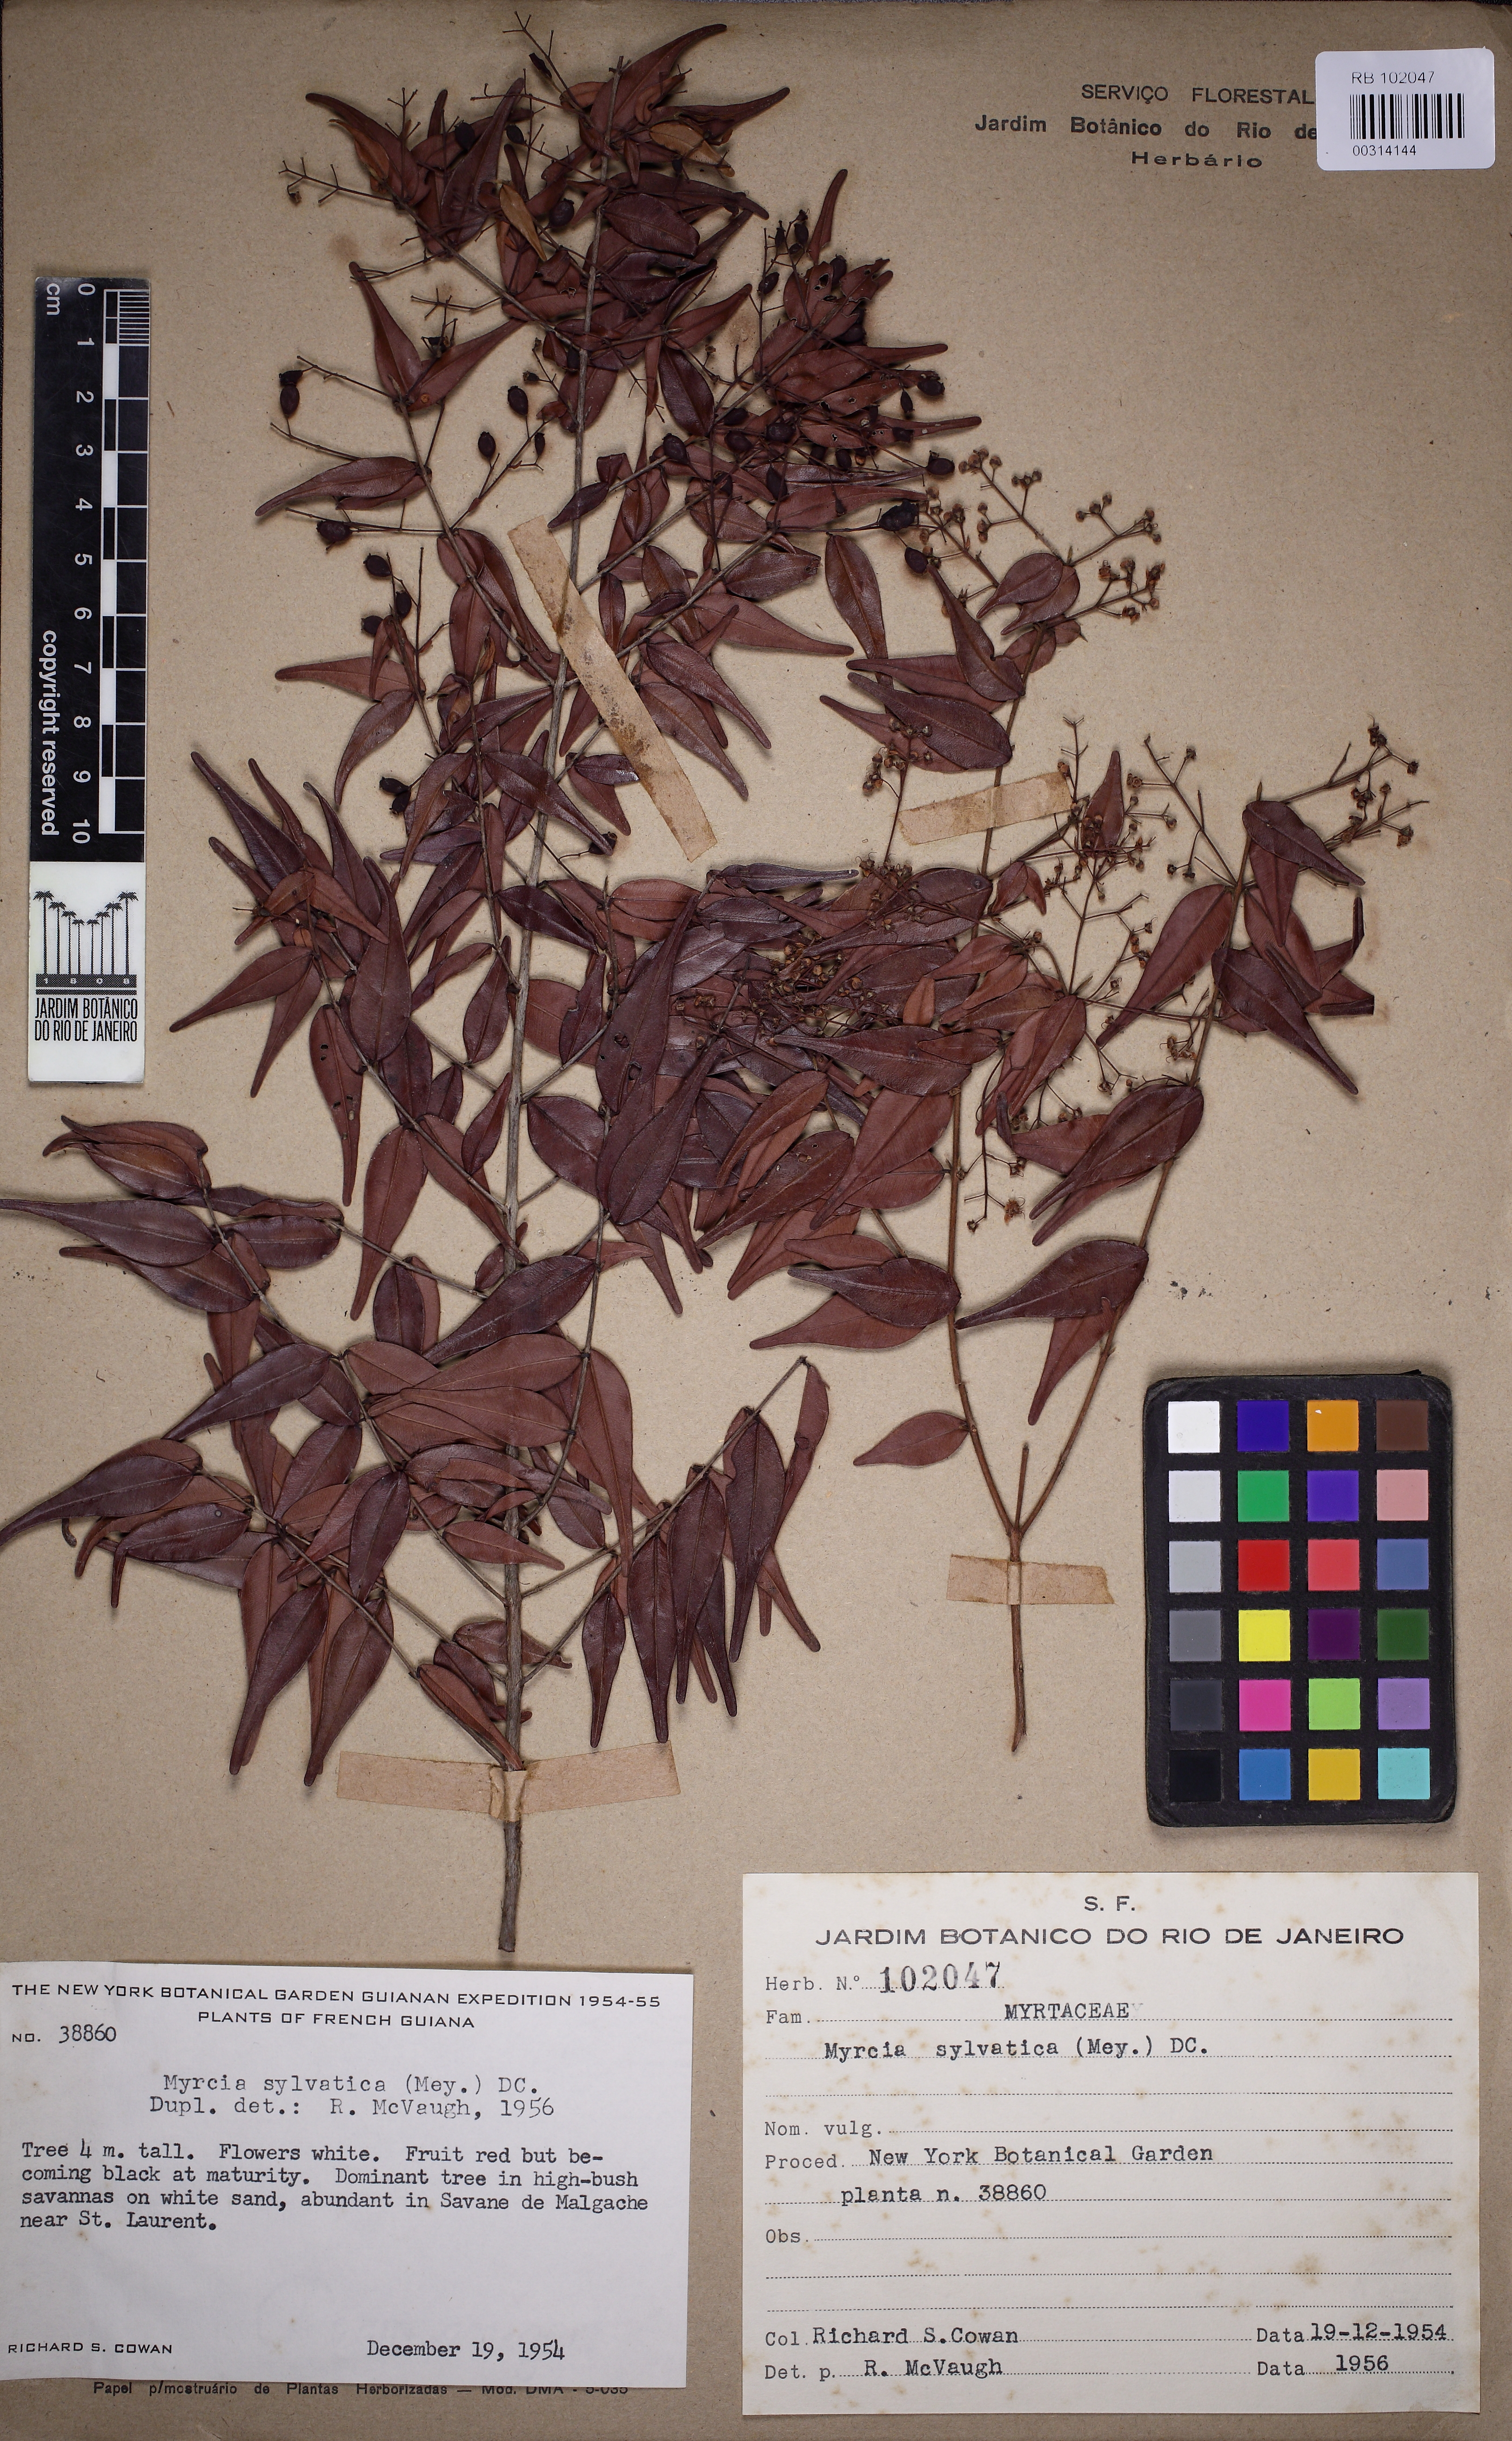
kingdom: Plantae
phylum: Tracheophyta
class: Magnoliopsida
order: Myrtales
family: Myrtaceae
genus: Myrcia
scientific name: Myrcia sylvatica
